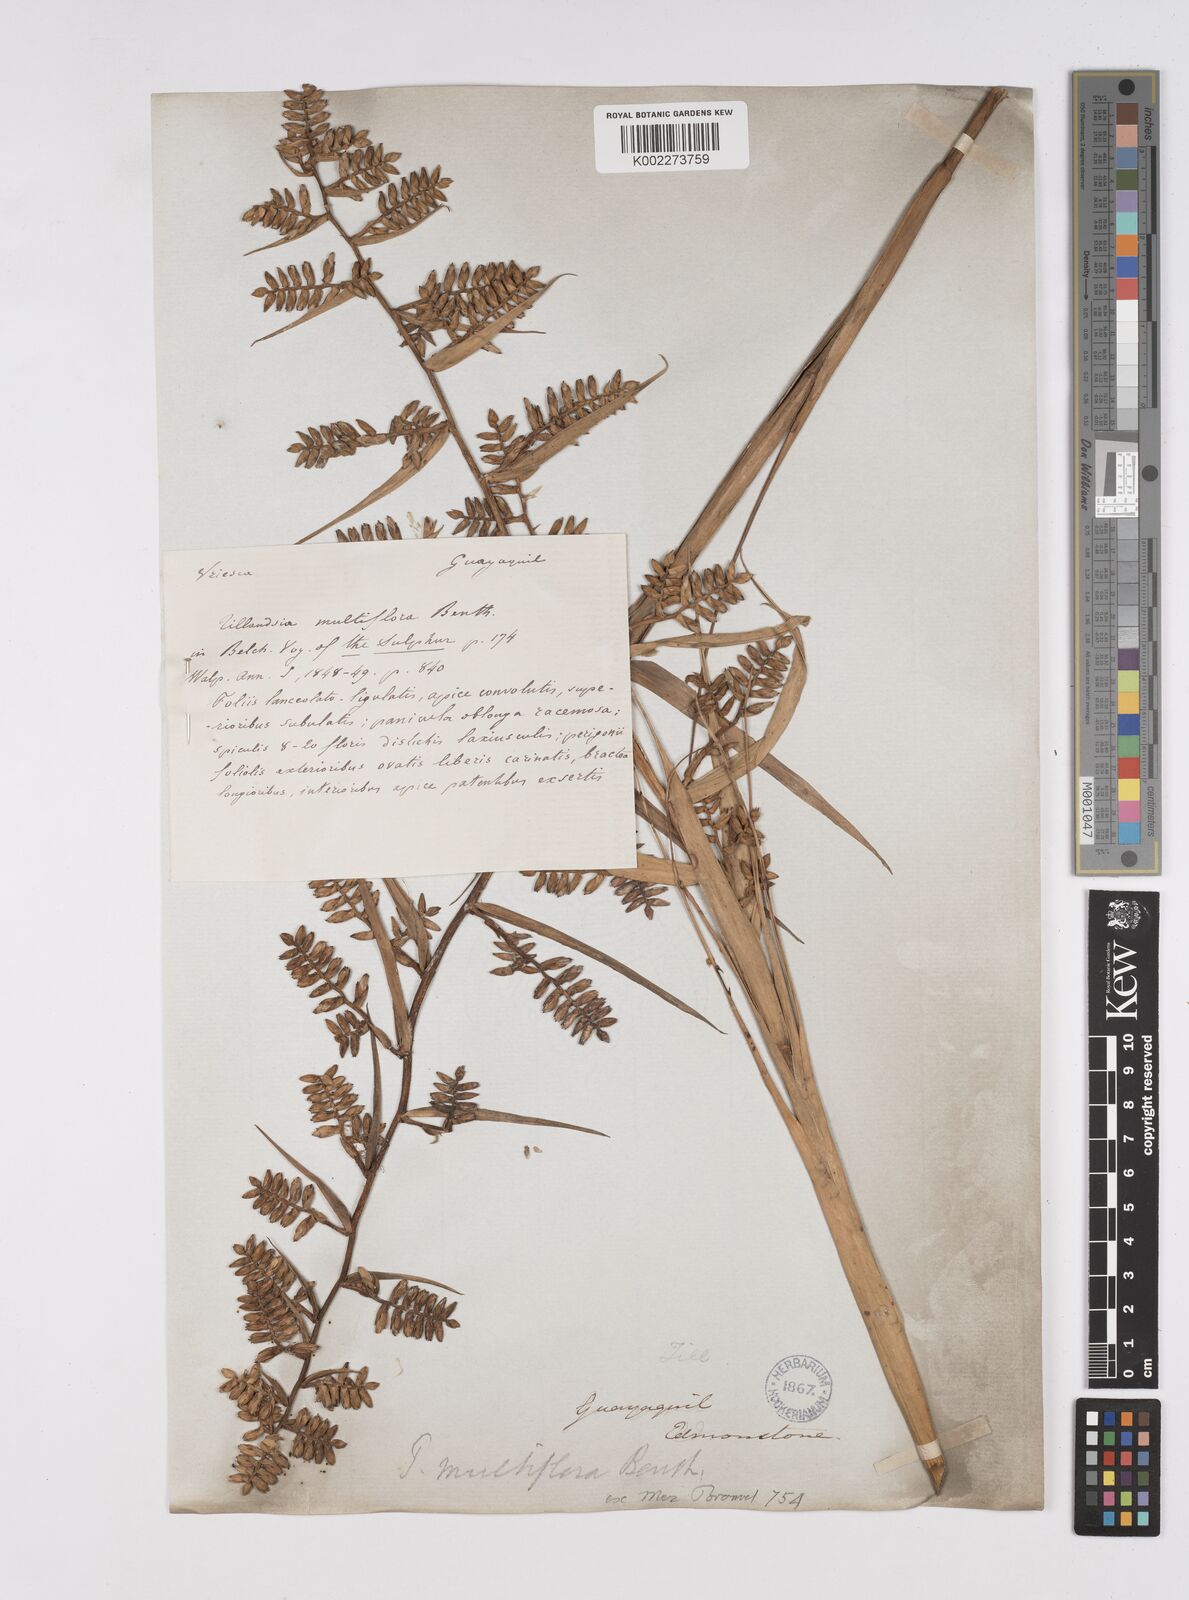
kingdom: Plantae
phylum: Tracheophyta
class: Liliopsida
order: Poales
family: Bromeliaceae
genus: Racinaea
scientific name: Racinaea multiflora
